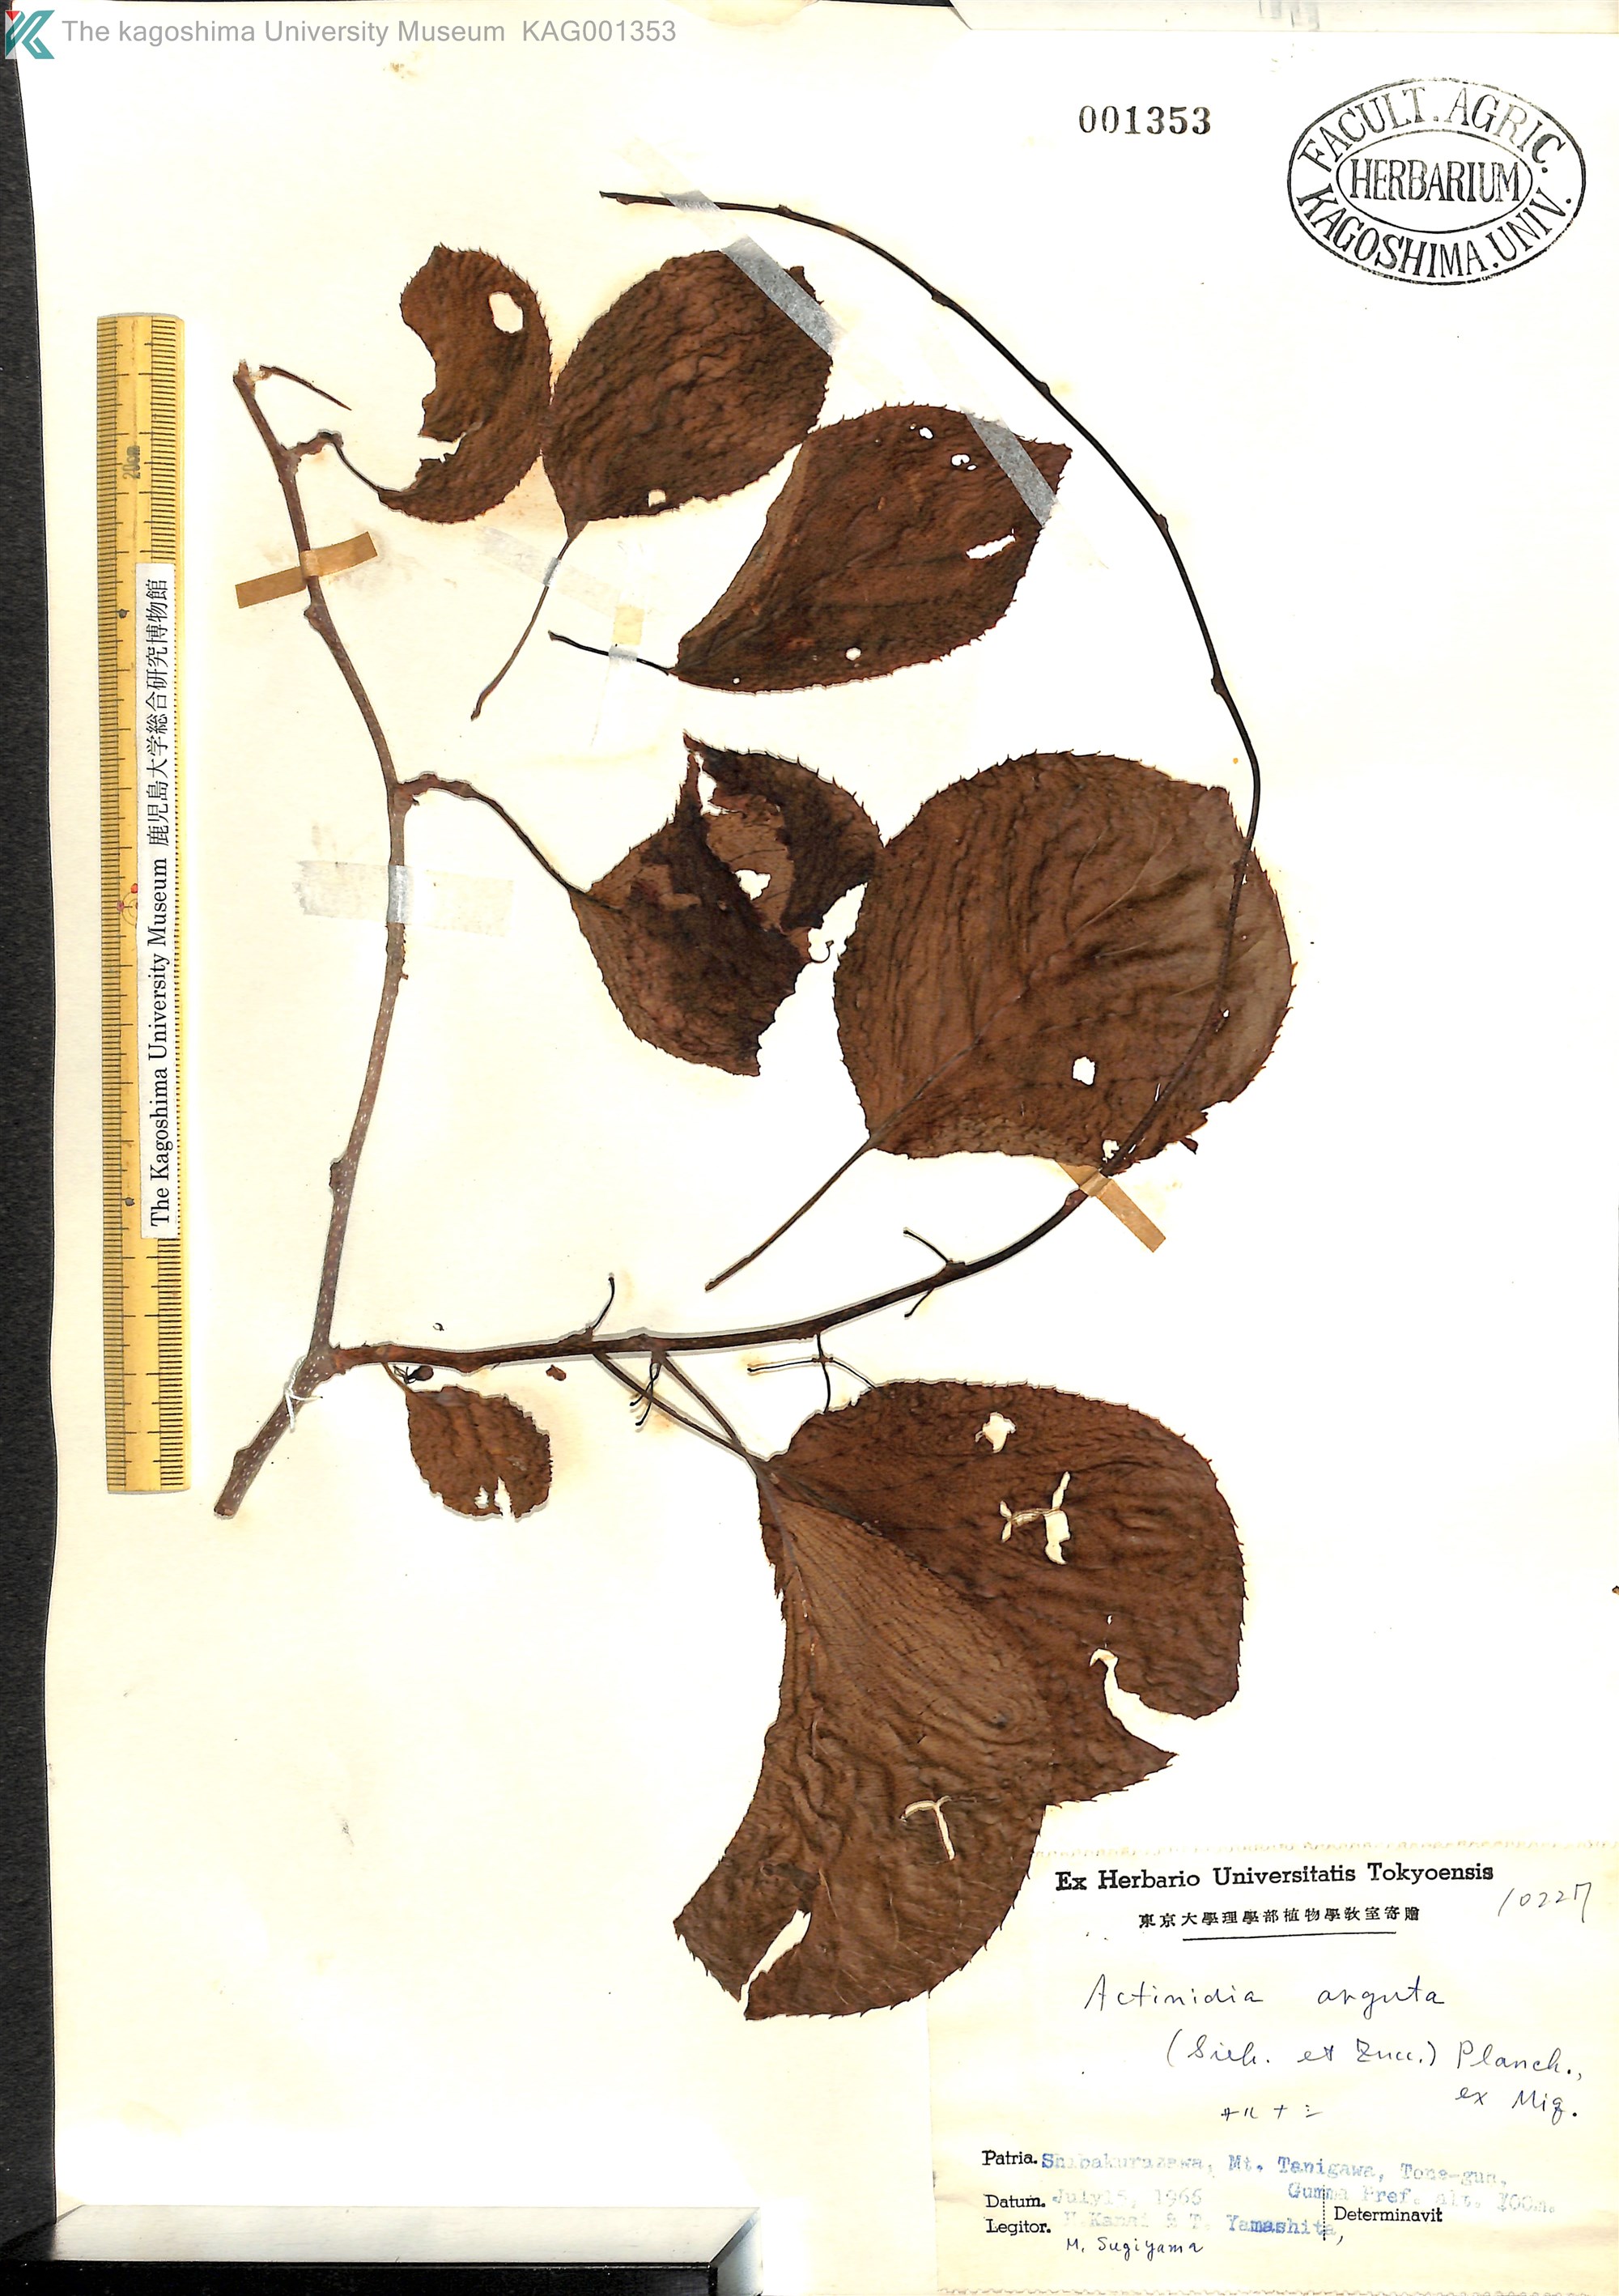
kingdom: Plantae
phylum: Tracheophyta
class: Magnoliopsida
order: Ericales
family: Actinidiaceae
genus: Actinidia
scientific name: Actinidia arguta
